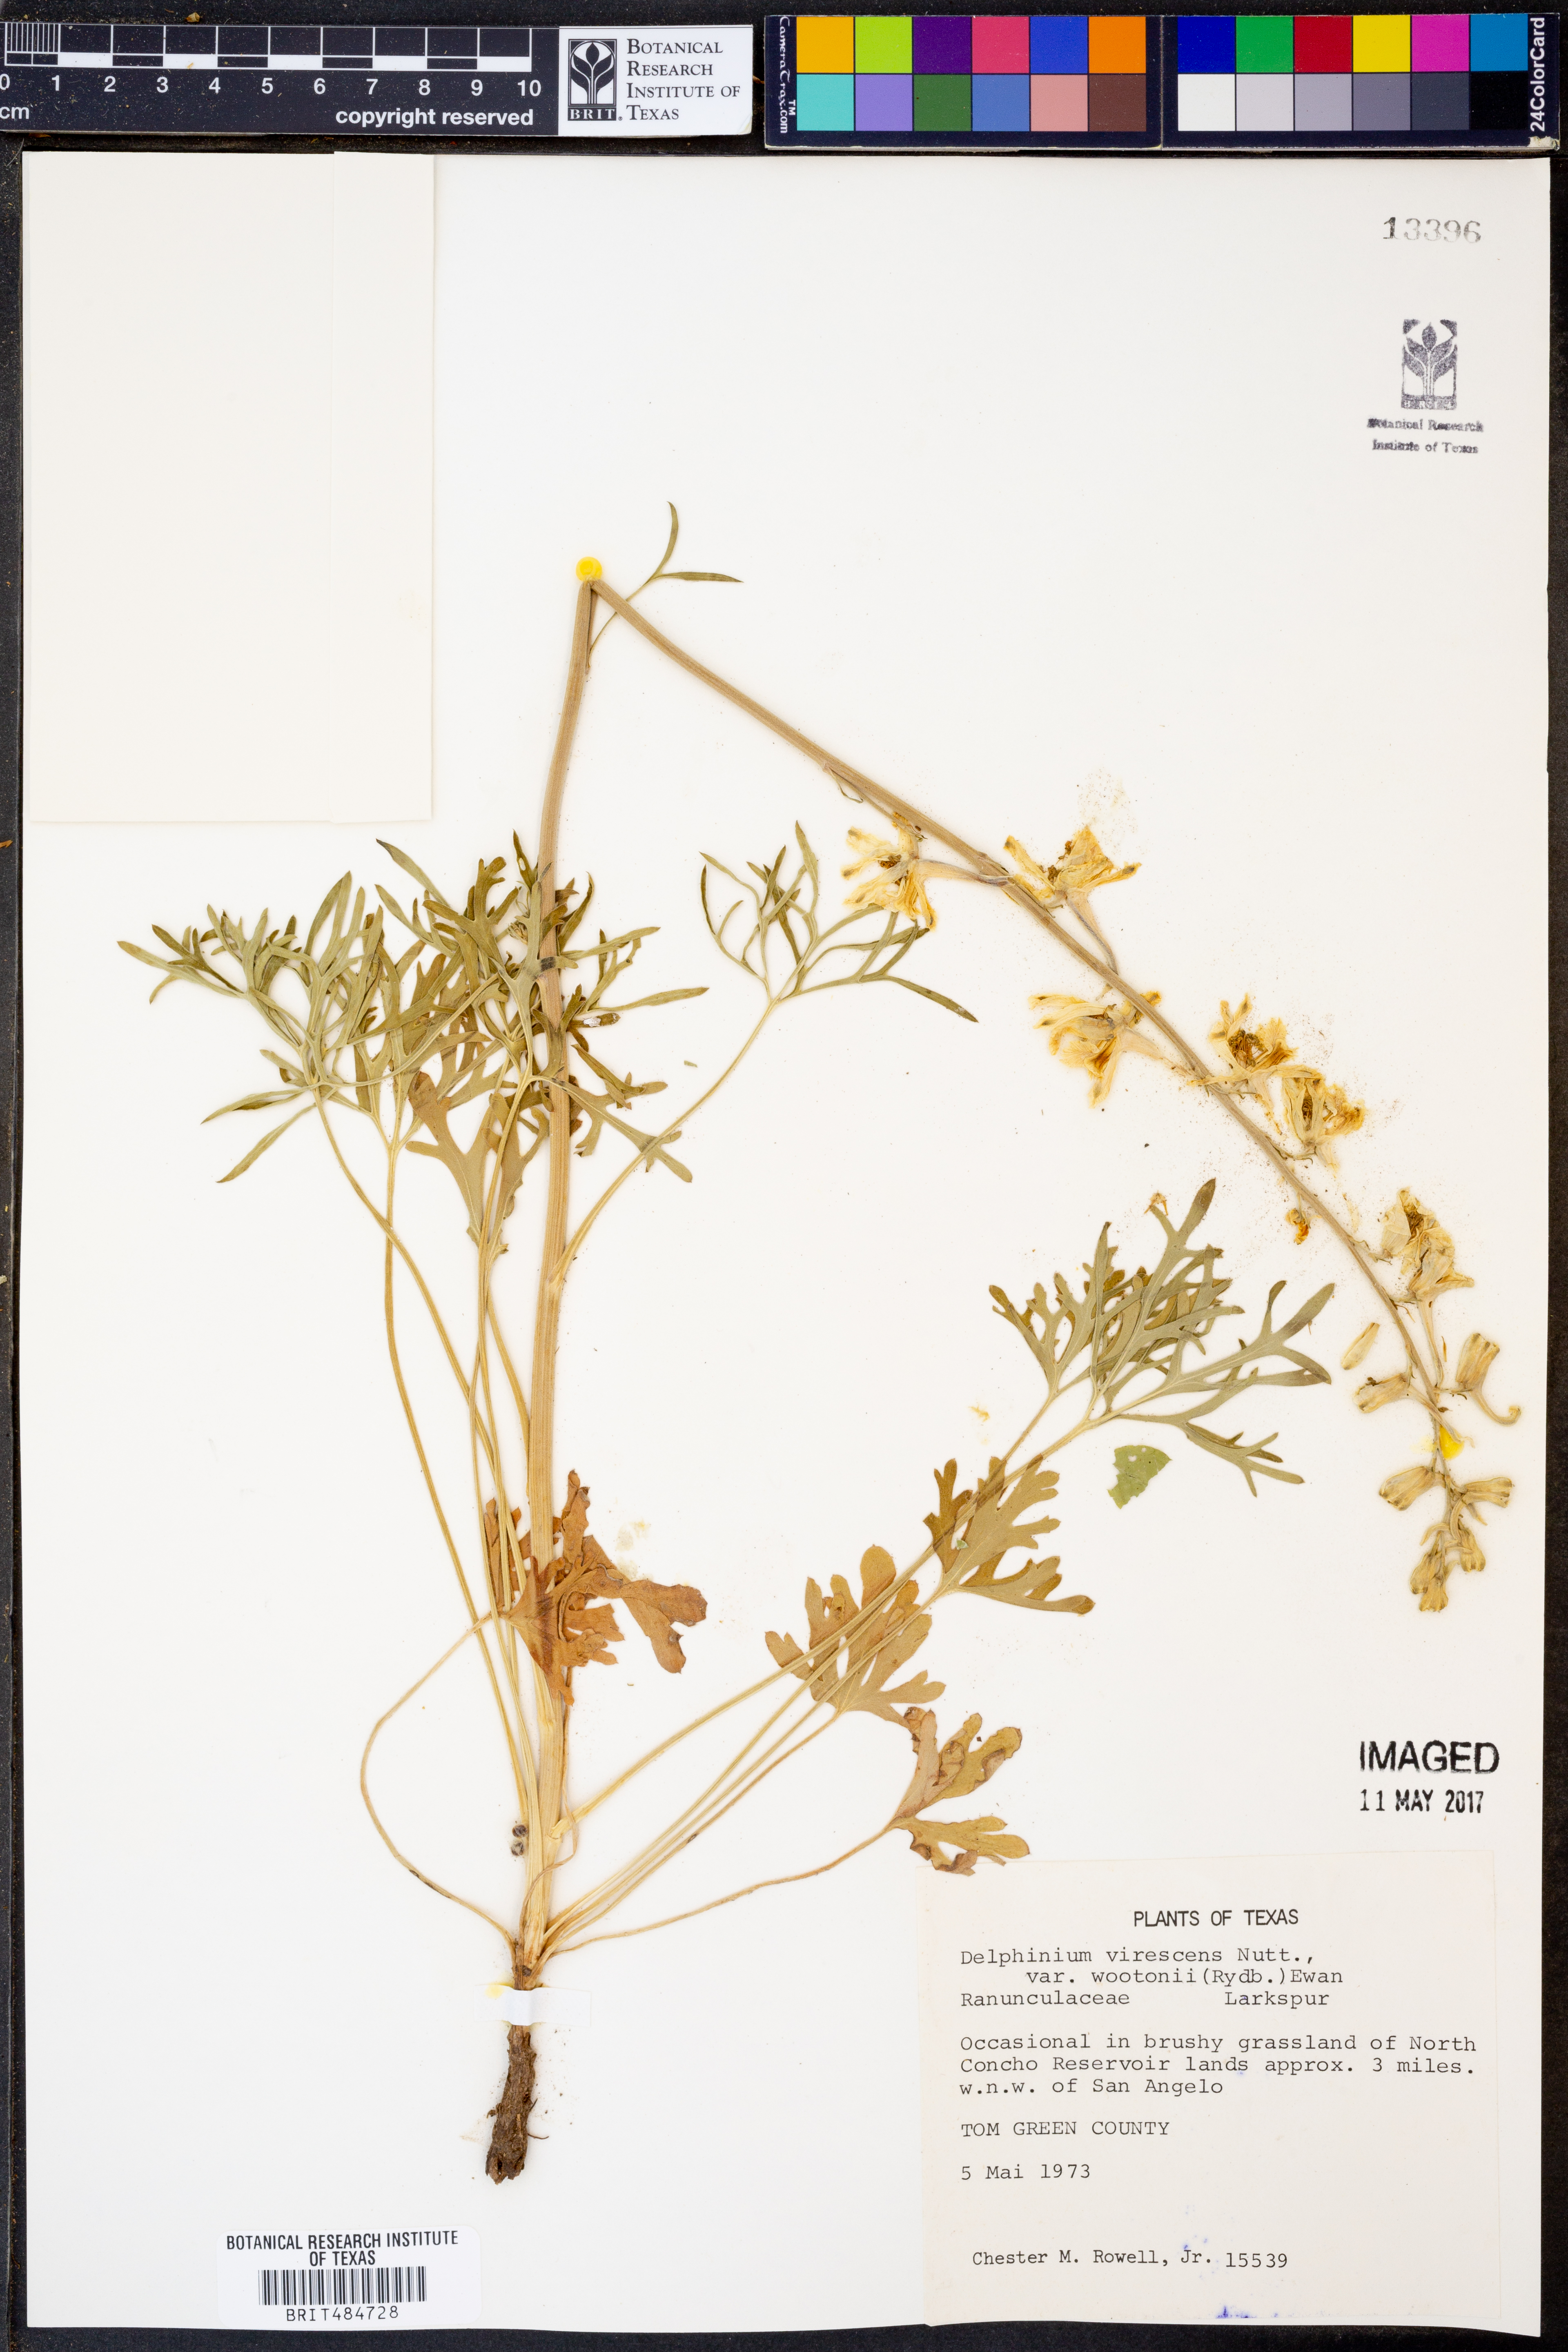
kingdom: Plantae
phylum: Tracheophyta
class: Magnoliopsida
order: Ranunculales
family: Ranunculaceae
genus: Delphinium
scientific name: Delphinium wootonii
